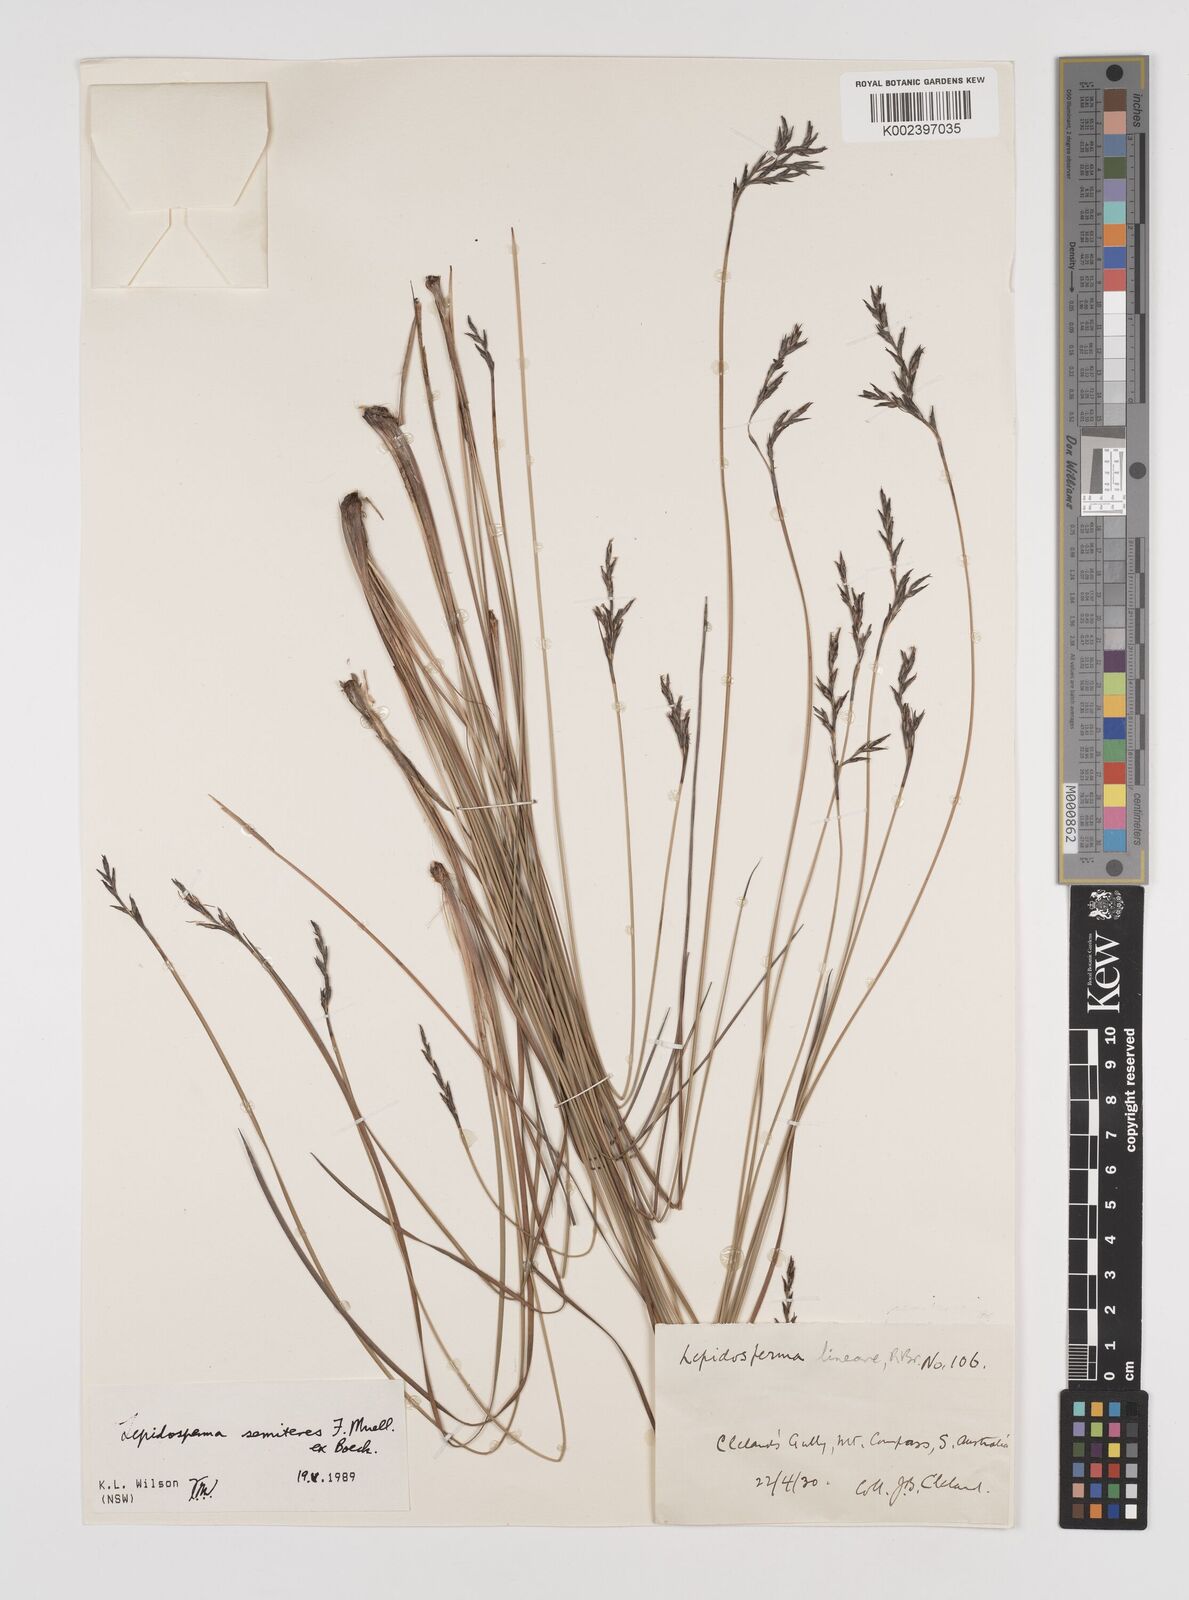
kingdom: Plantae
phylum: Tracheophyta
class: Liliopsida
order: Poales
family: Cyperaceae
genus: Lepidosperma
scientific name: Lepidosperma semiteres
